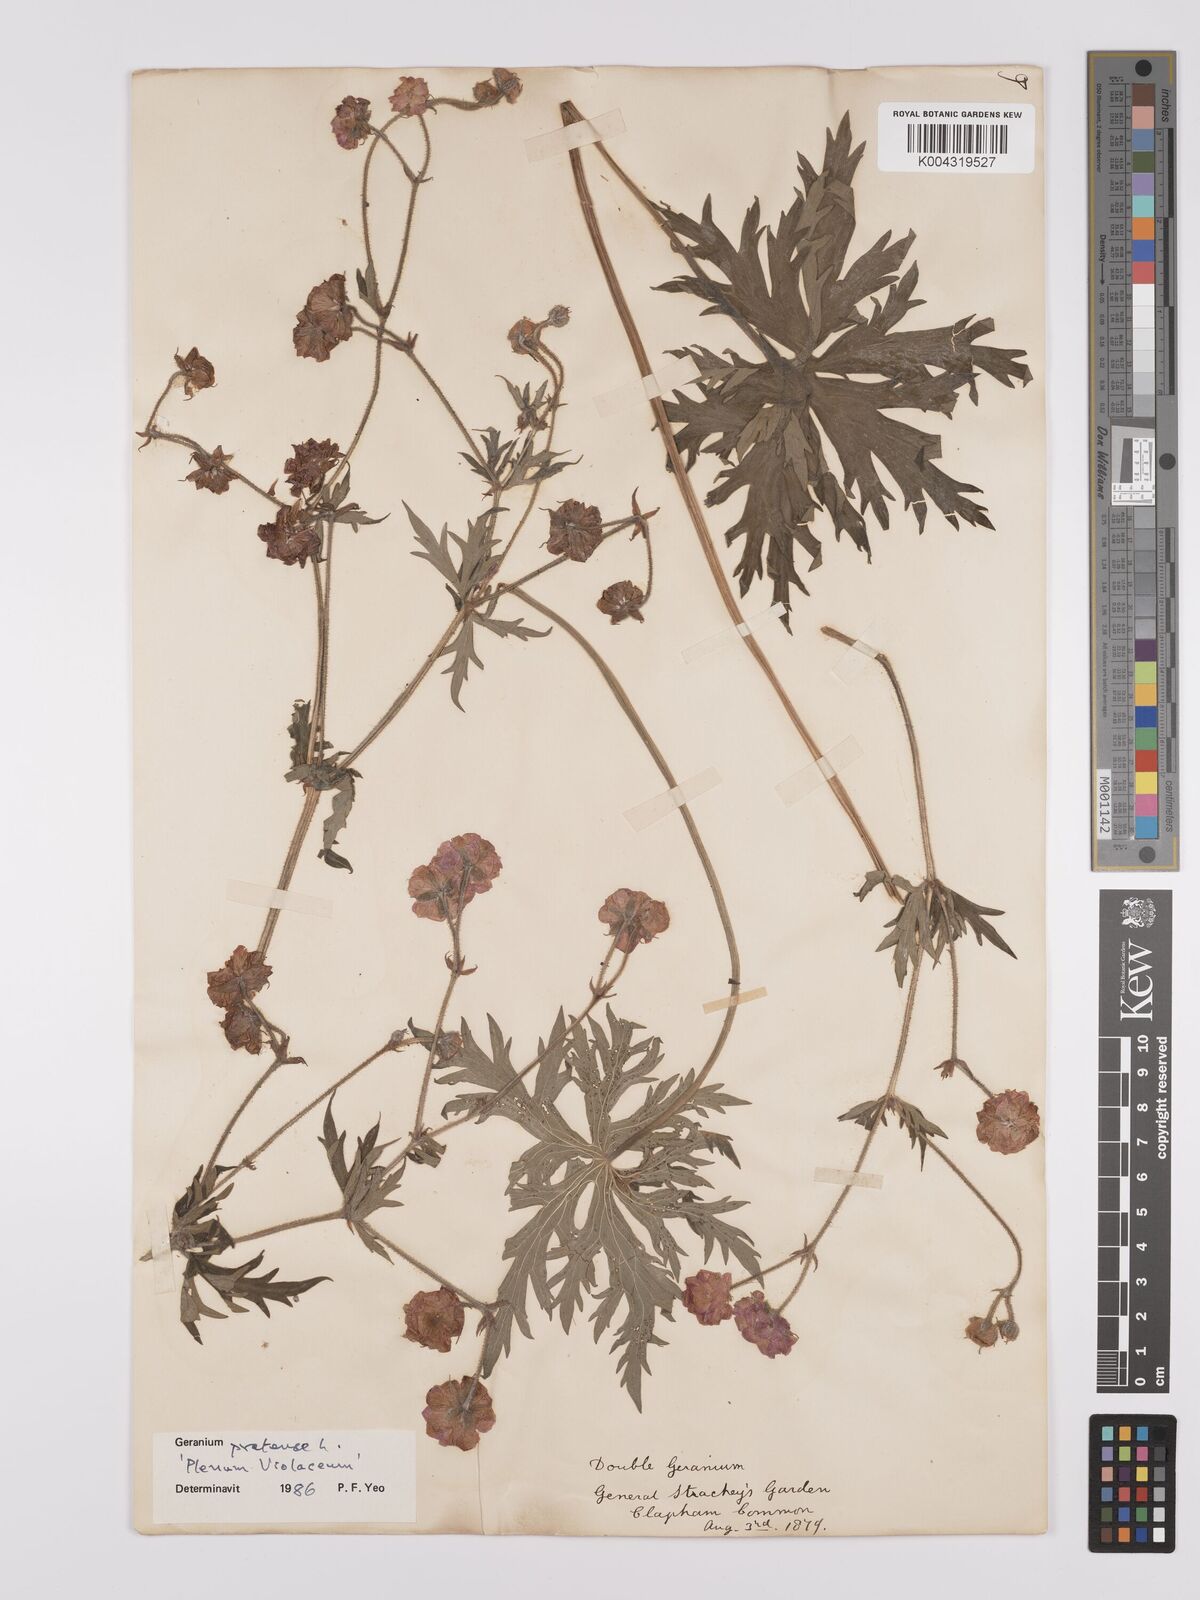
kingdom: Plantae
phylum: Tracheophyta
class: Magnoliopsida
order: Geraniales
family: Geraniaceae
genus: Geranium
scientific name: Geranium pratense
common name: Meadow crane's-bill
